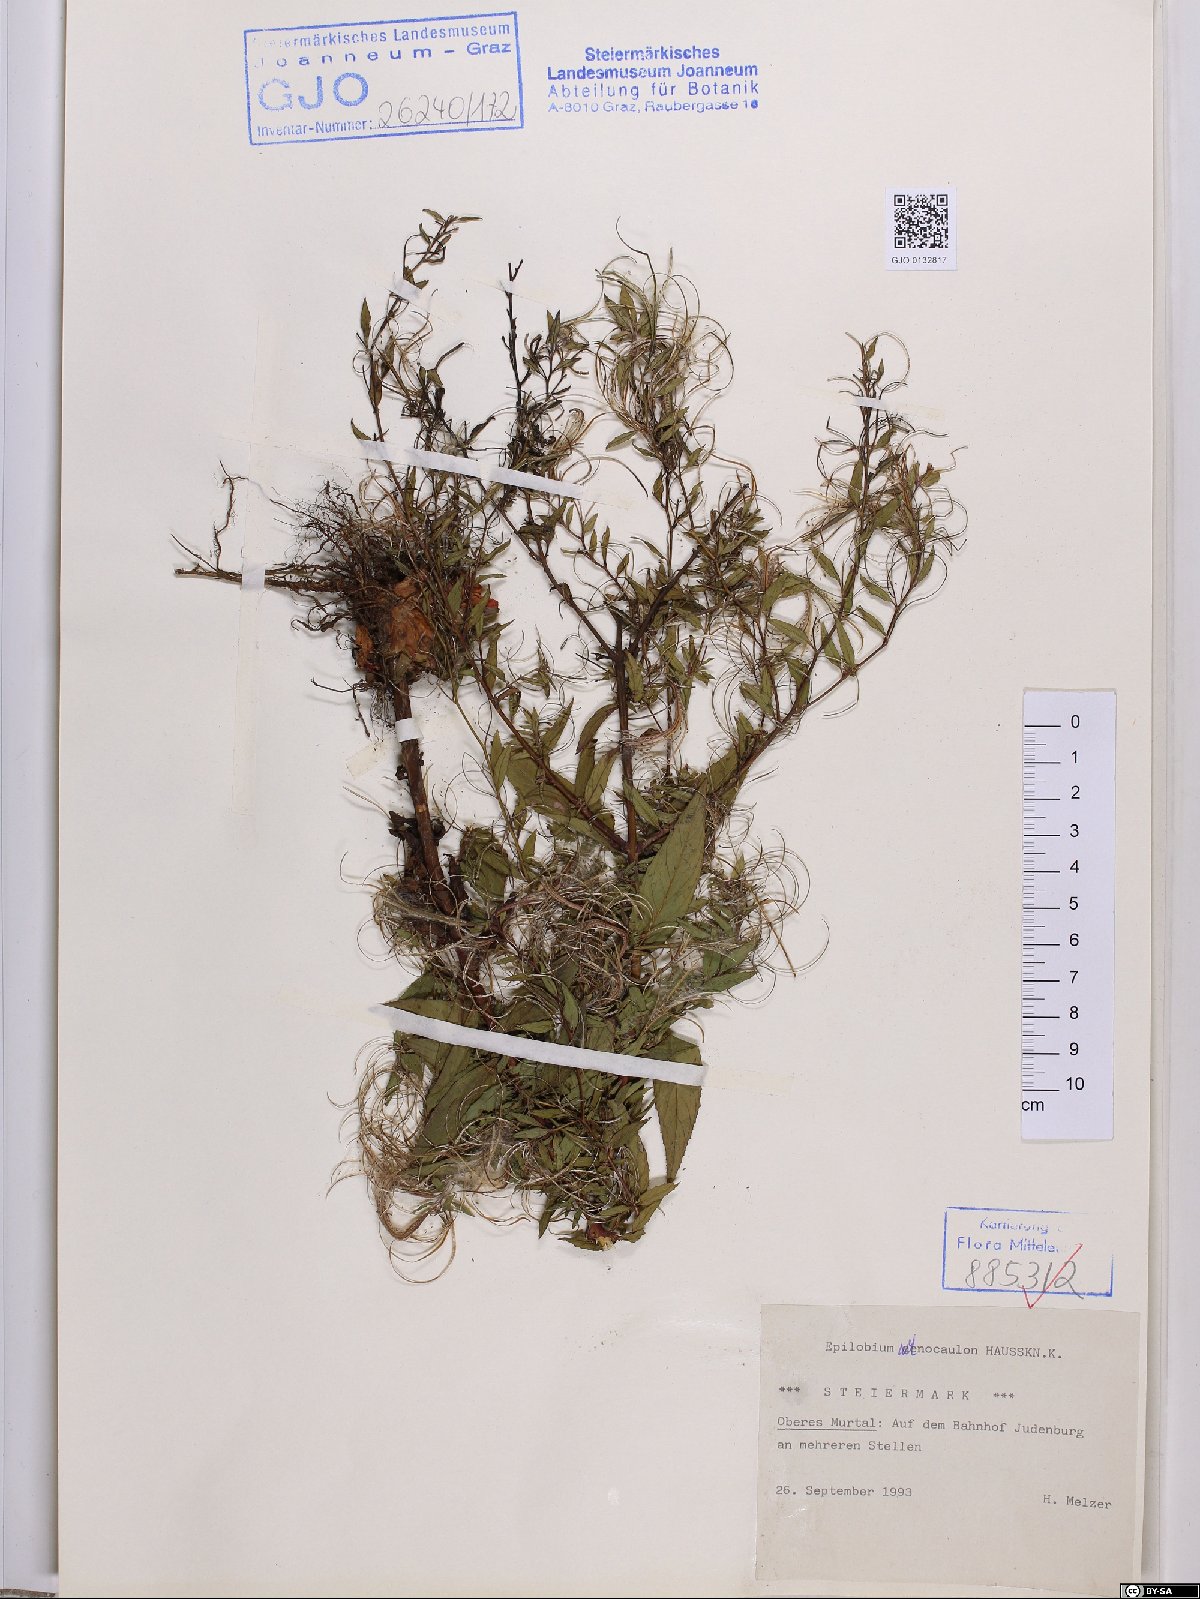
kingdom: Plantae
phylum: Tracheophyta
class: Magnoliopsida
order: Myrtales
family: Onagraceae
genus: Epilobium
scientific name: Epilobium ciliatum
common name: American willowherb
